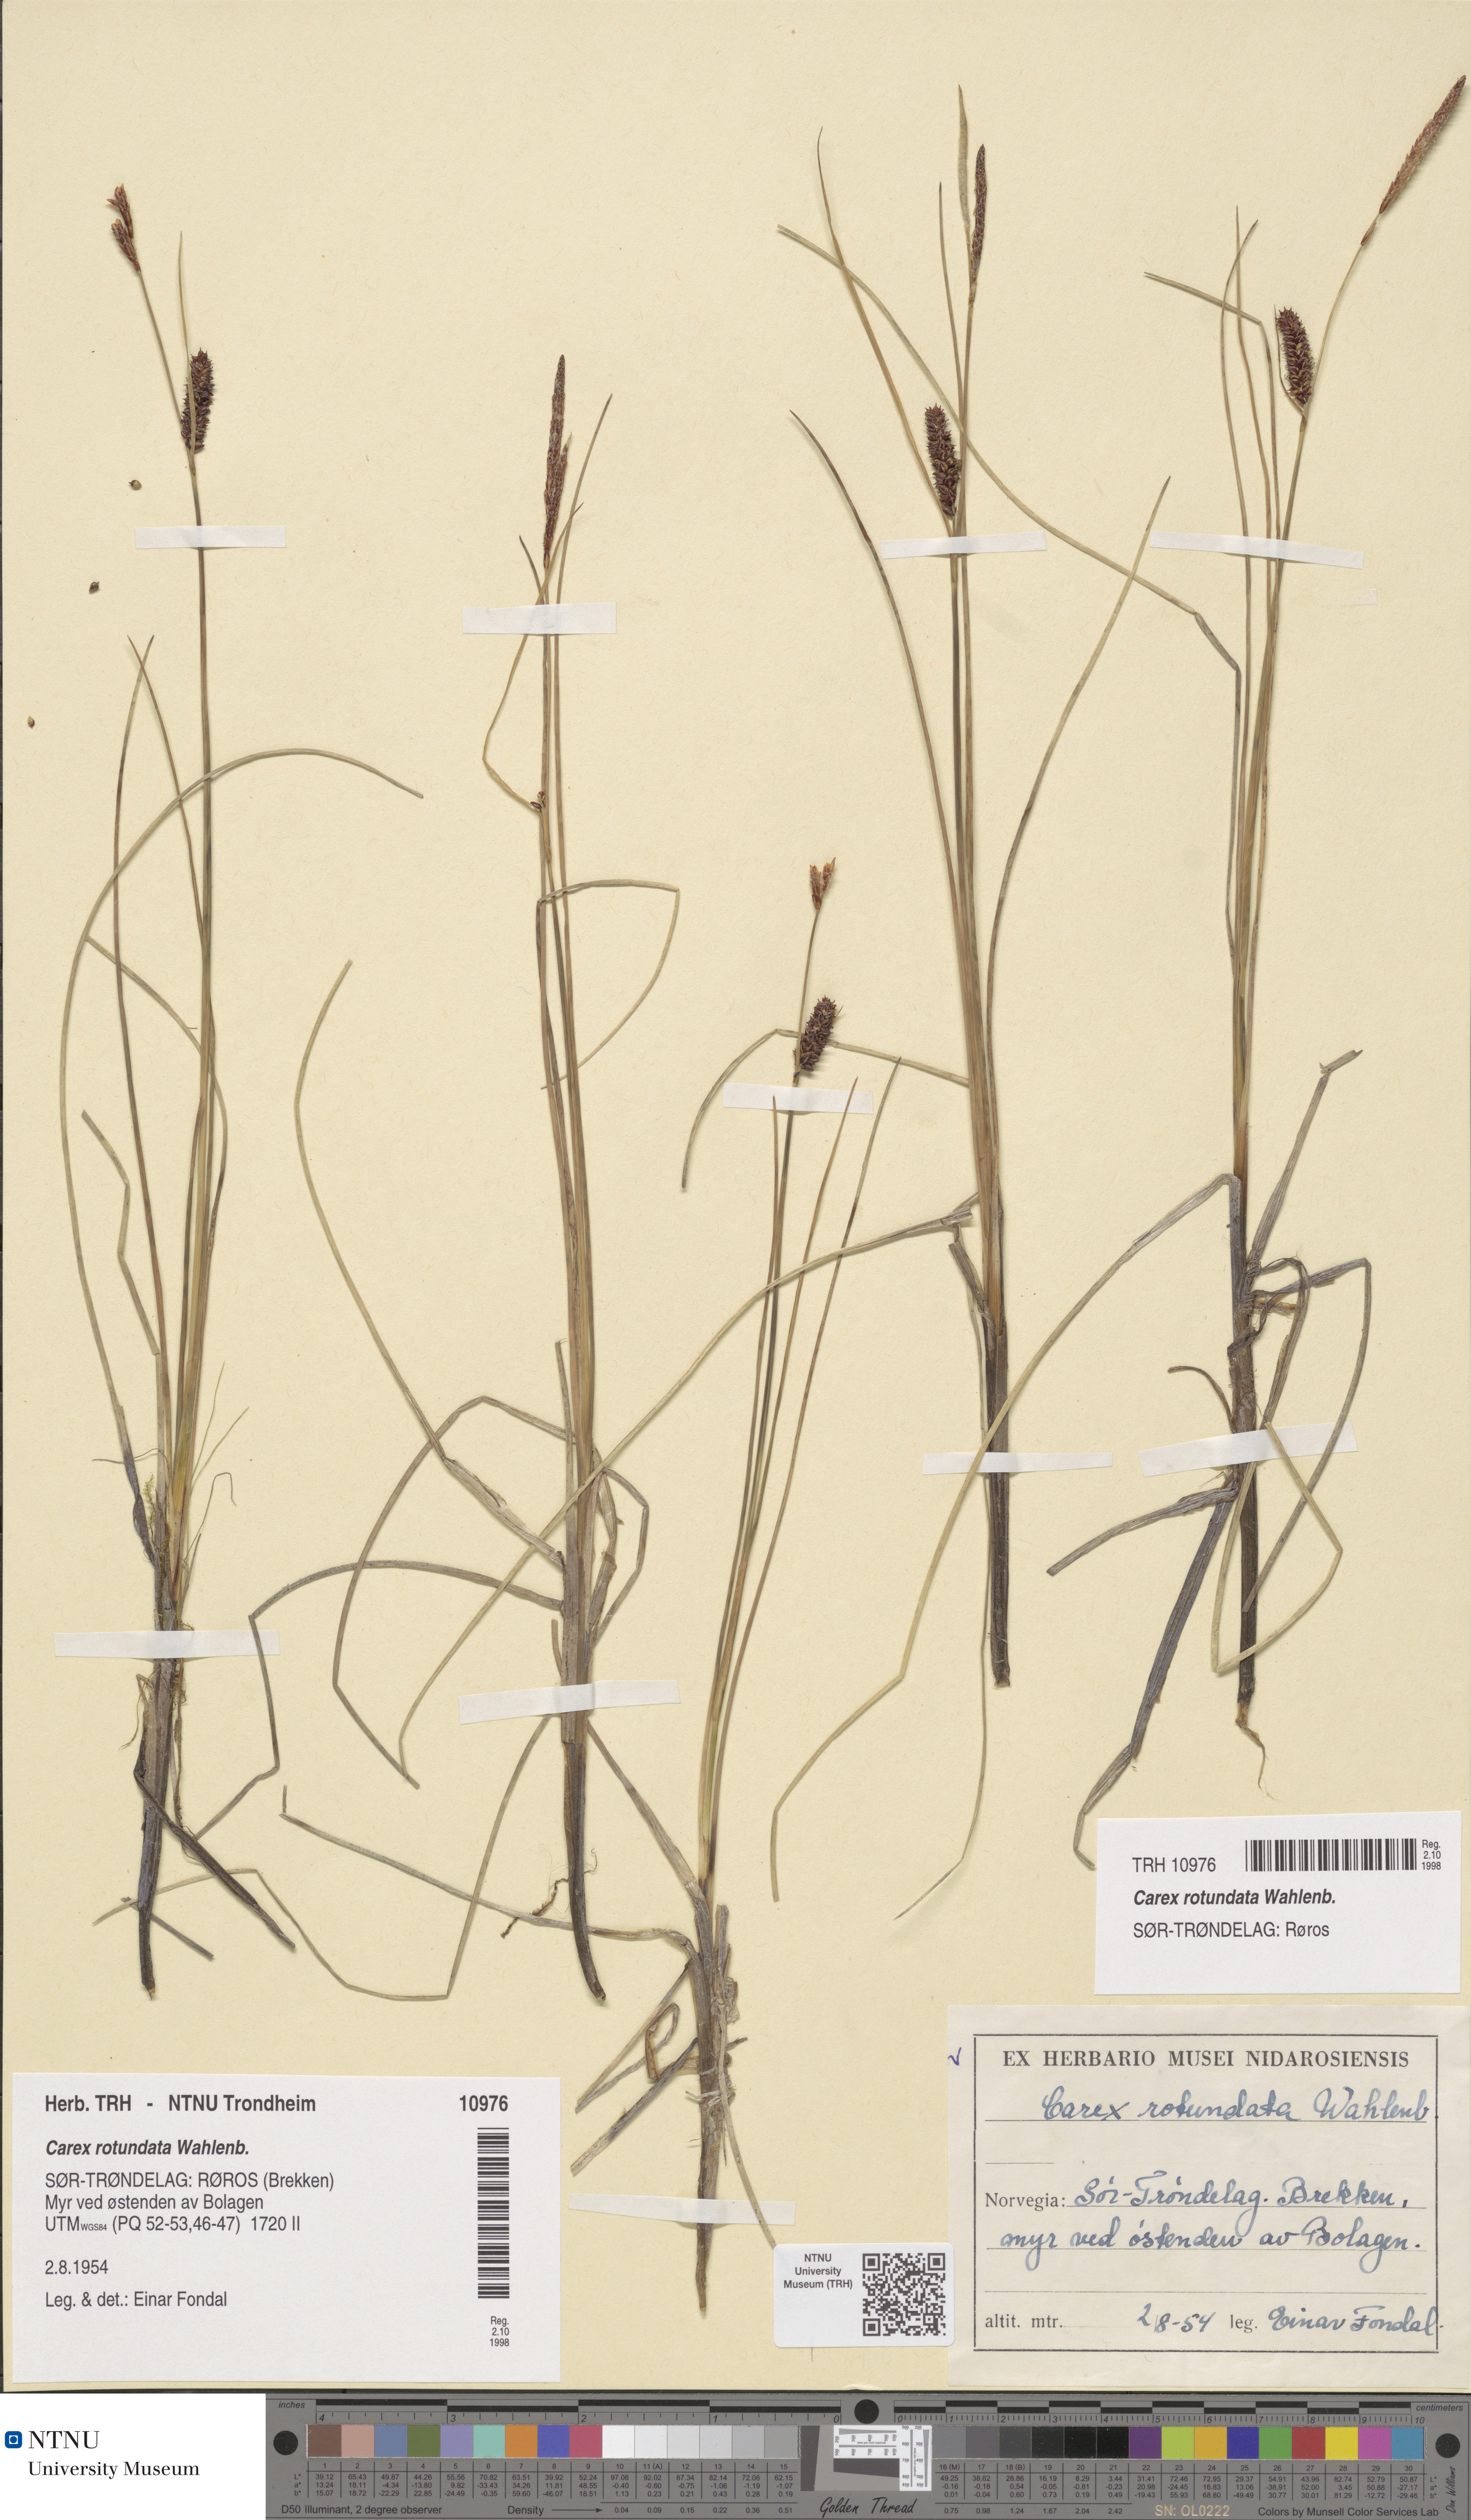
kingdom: Plantae
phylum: Tracheophyta
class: Liliopsida
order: Poales
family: Cyperaceae
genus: Carex
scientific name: Carex rotundata
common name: Round-fruited sedge
